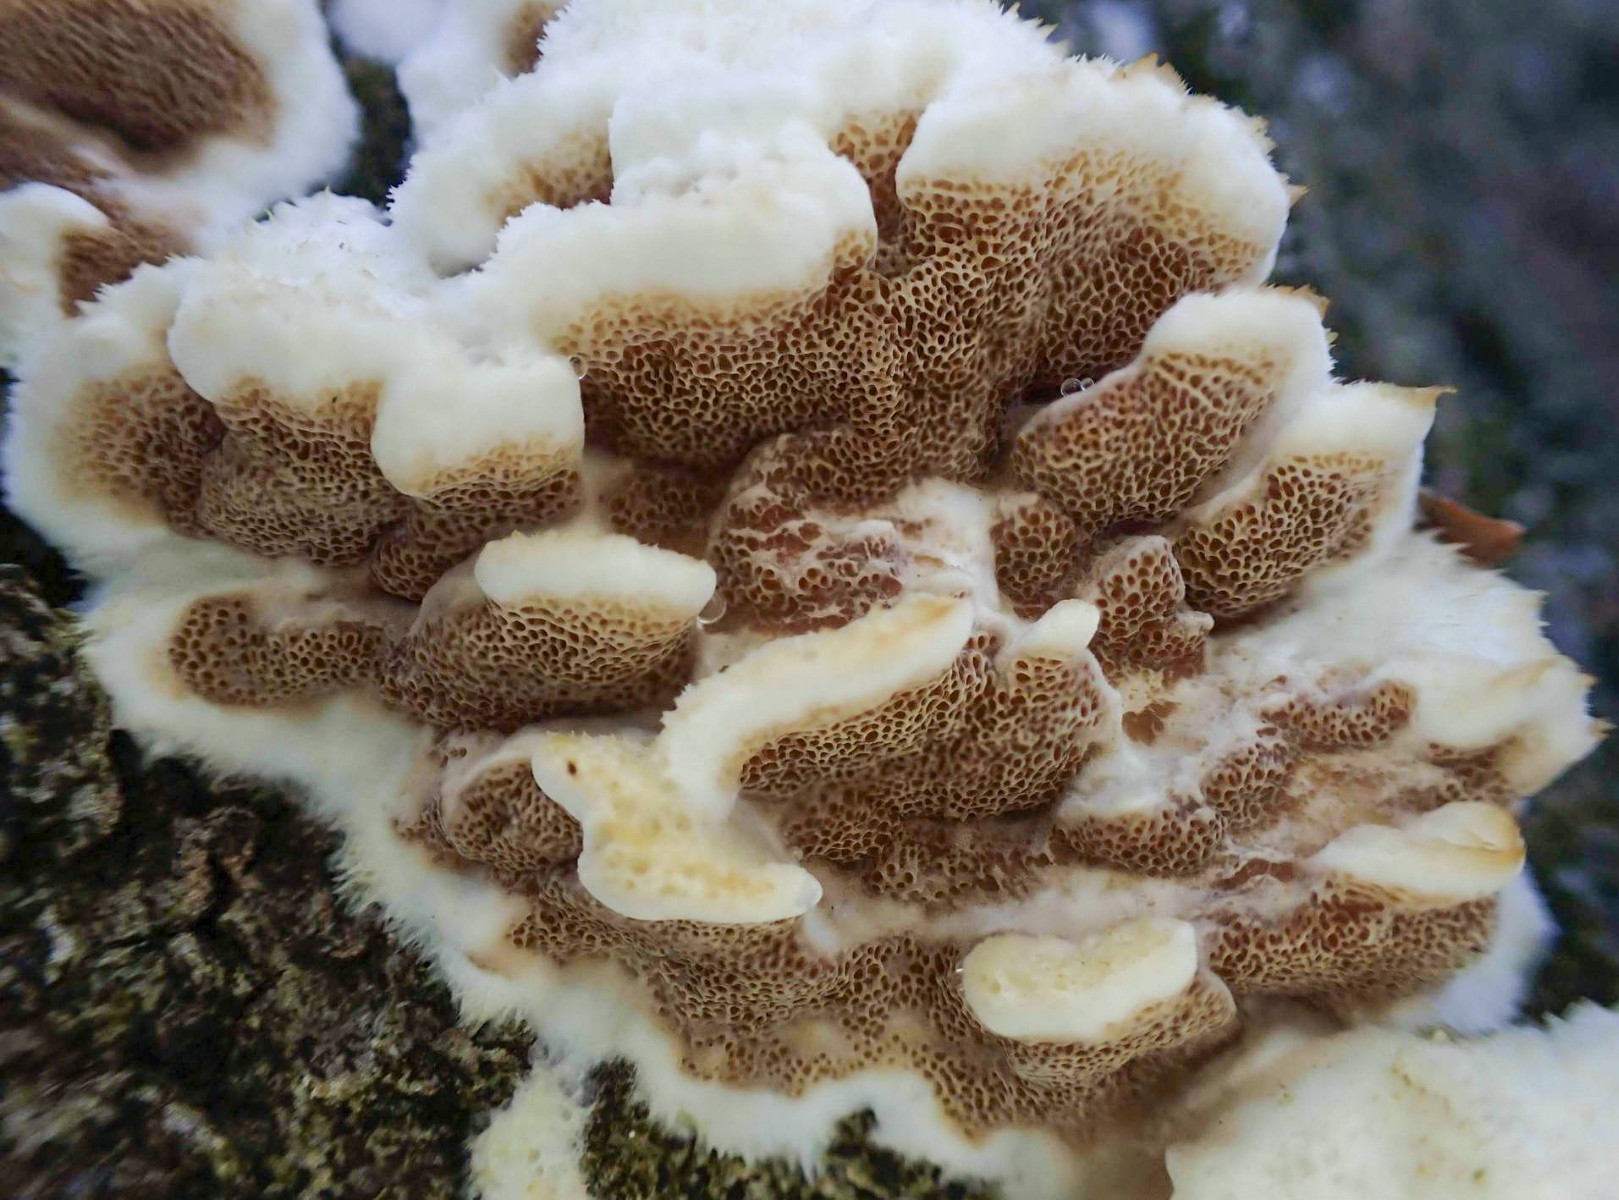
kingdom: Fungi
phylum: Basidiomycota
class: Agaricomycetes
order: Polyporales
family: Irpicaceae
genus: Vitreoporus
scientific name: Vitreoporus dichrous
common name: tofarvet foldporesvamp
